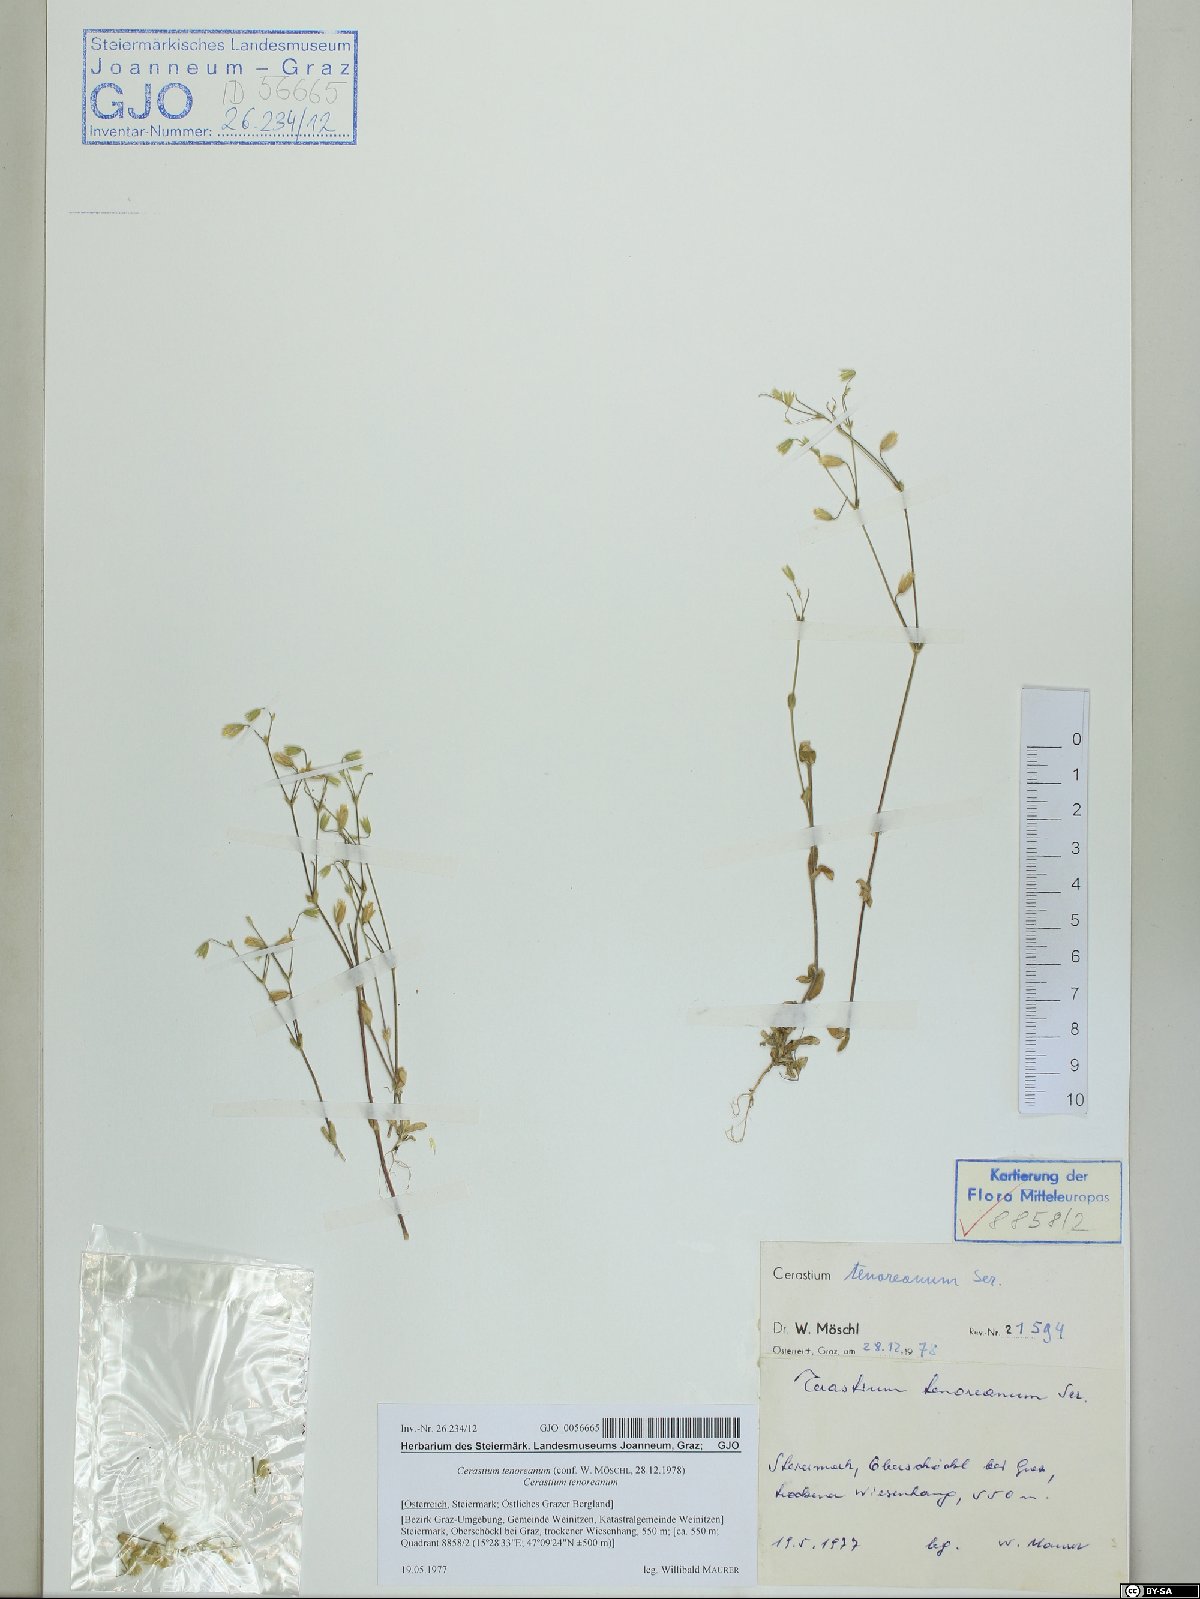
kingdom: Plantae
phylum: Tracheophyta
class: Magnoliopsida
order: Caryophyllales
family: Caryophyllaceae
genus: Cerastium
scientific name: Cerastium tenoreanum
